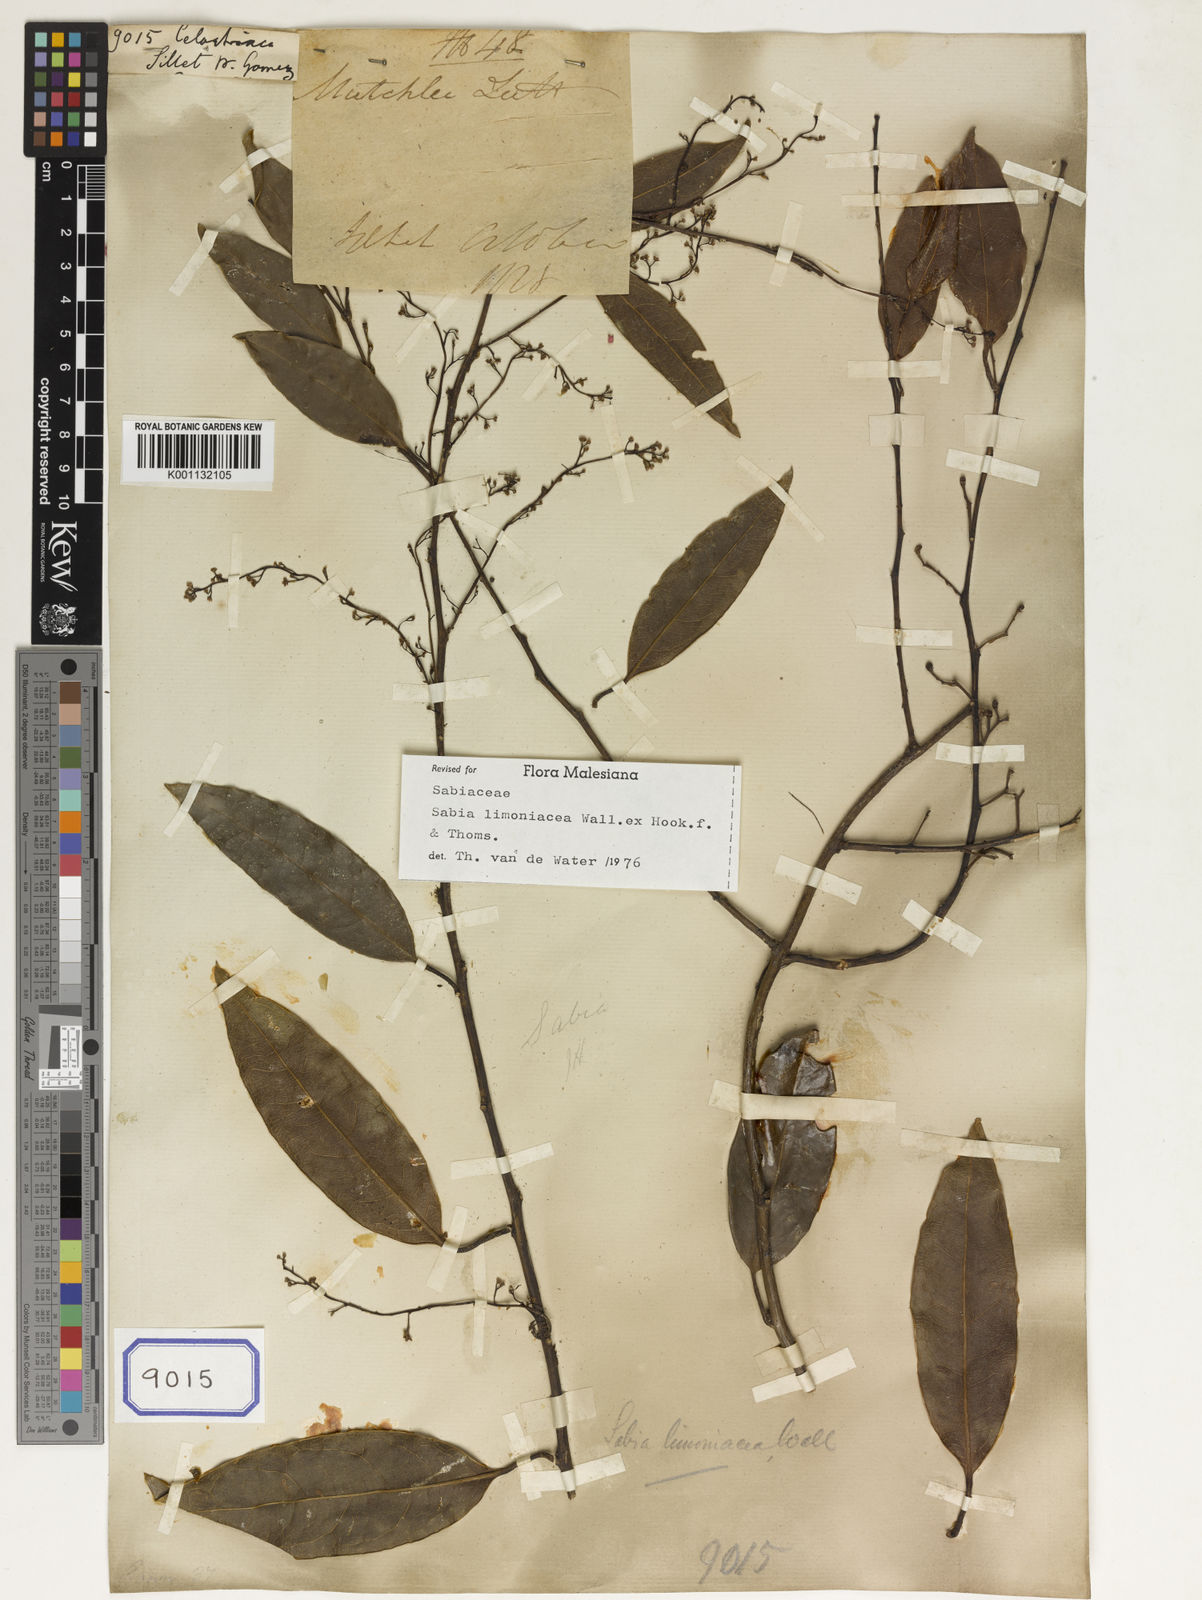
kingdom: Plantae
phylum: Tracheophyta
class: Magnoliopsida
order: Celastrales
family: Celastraceae
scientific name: Celastraceae
